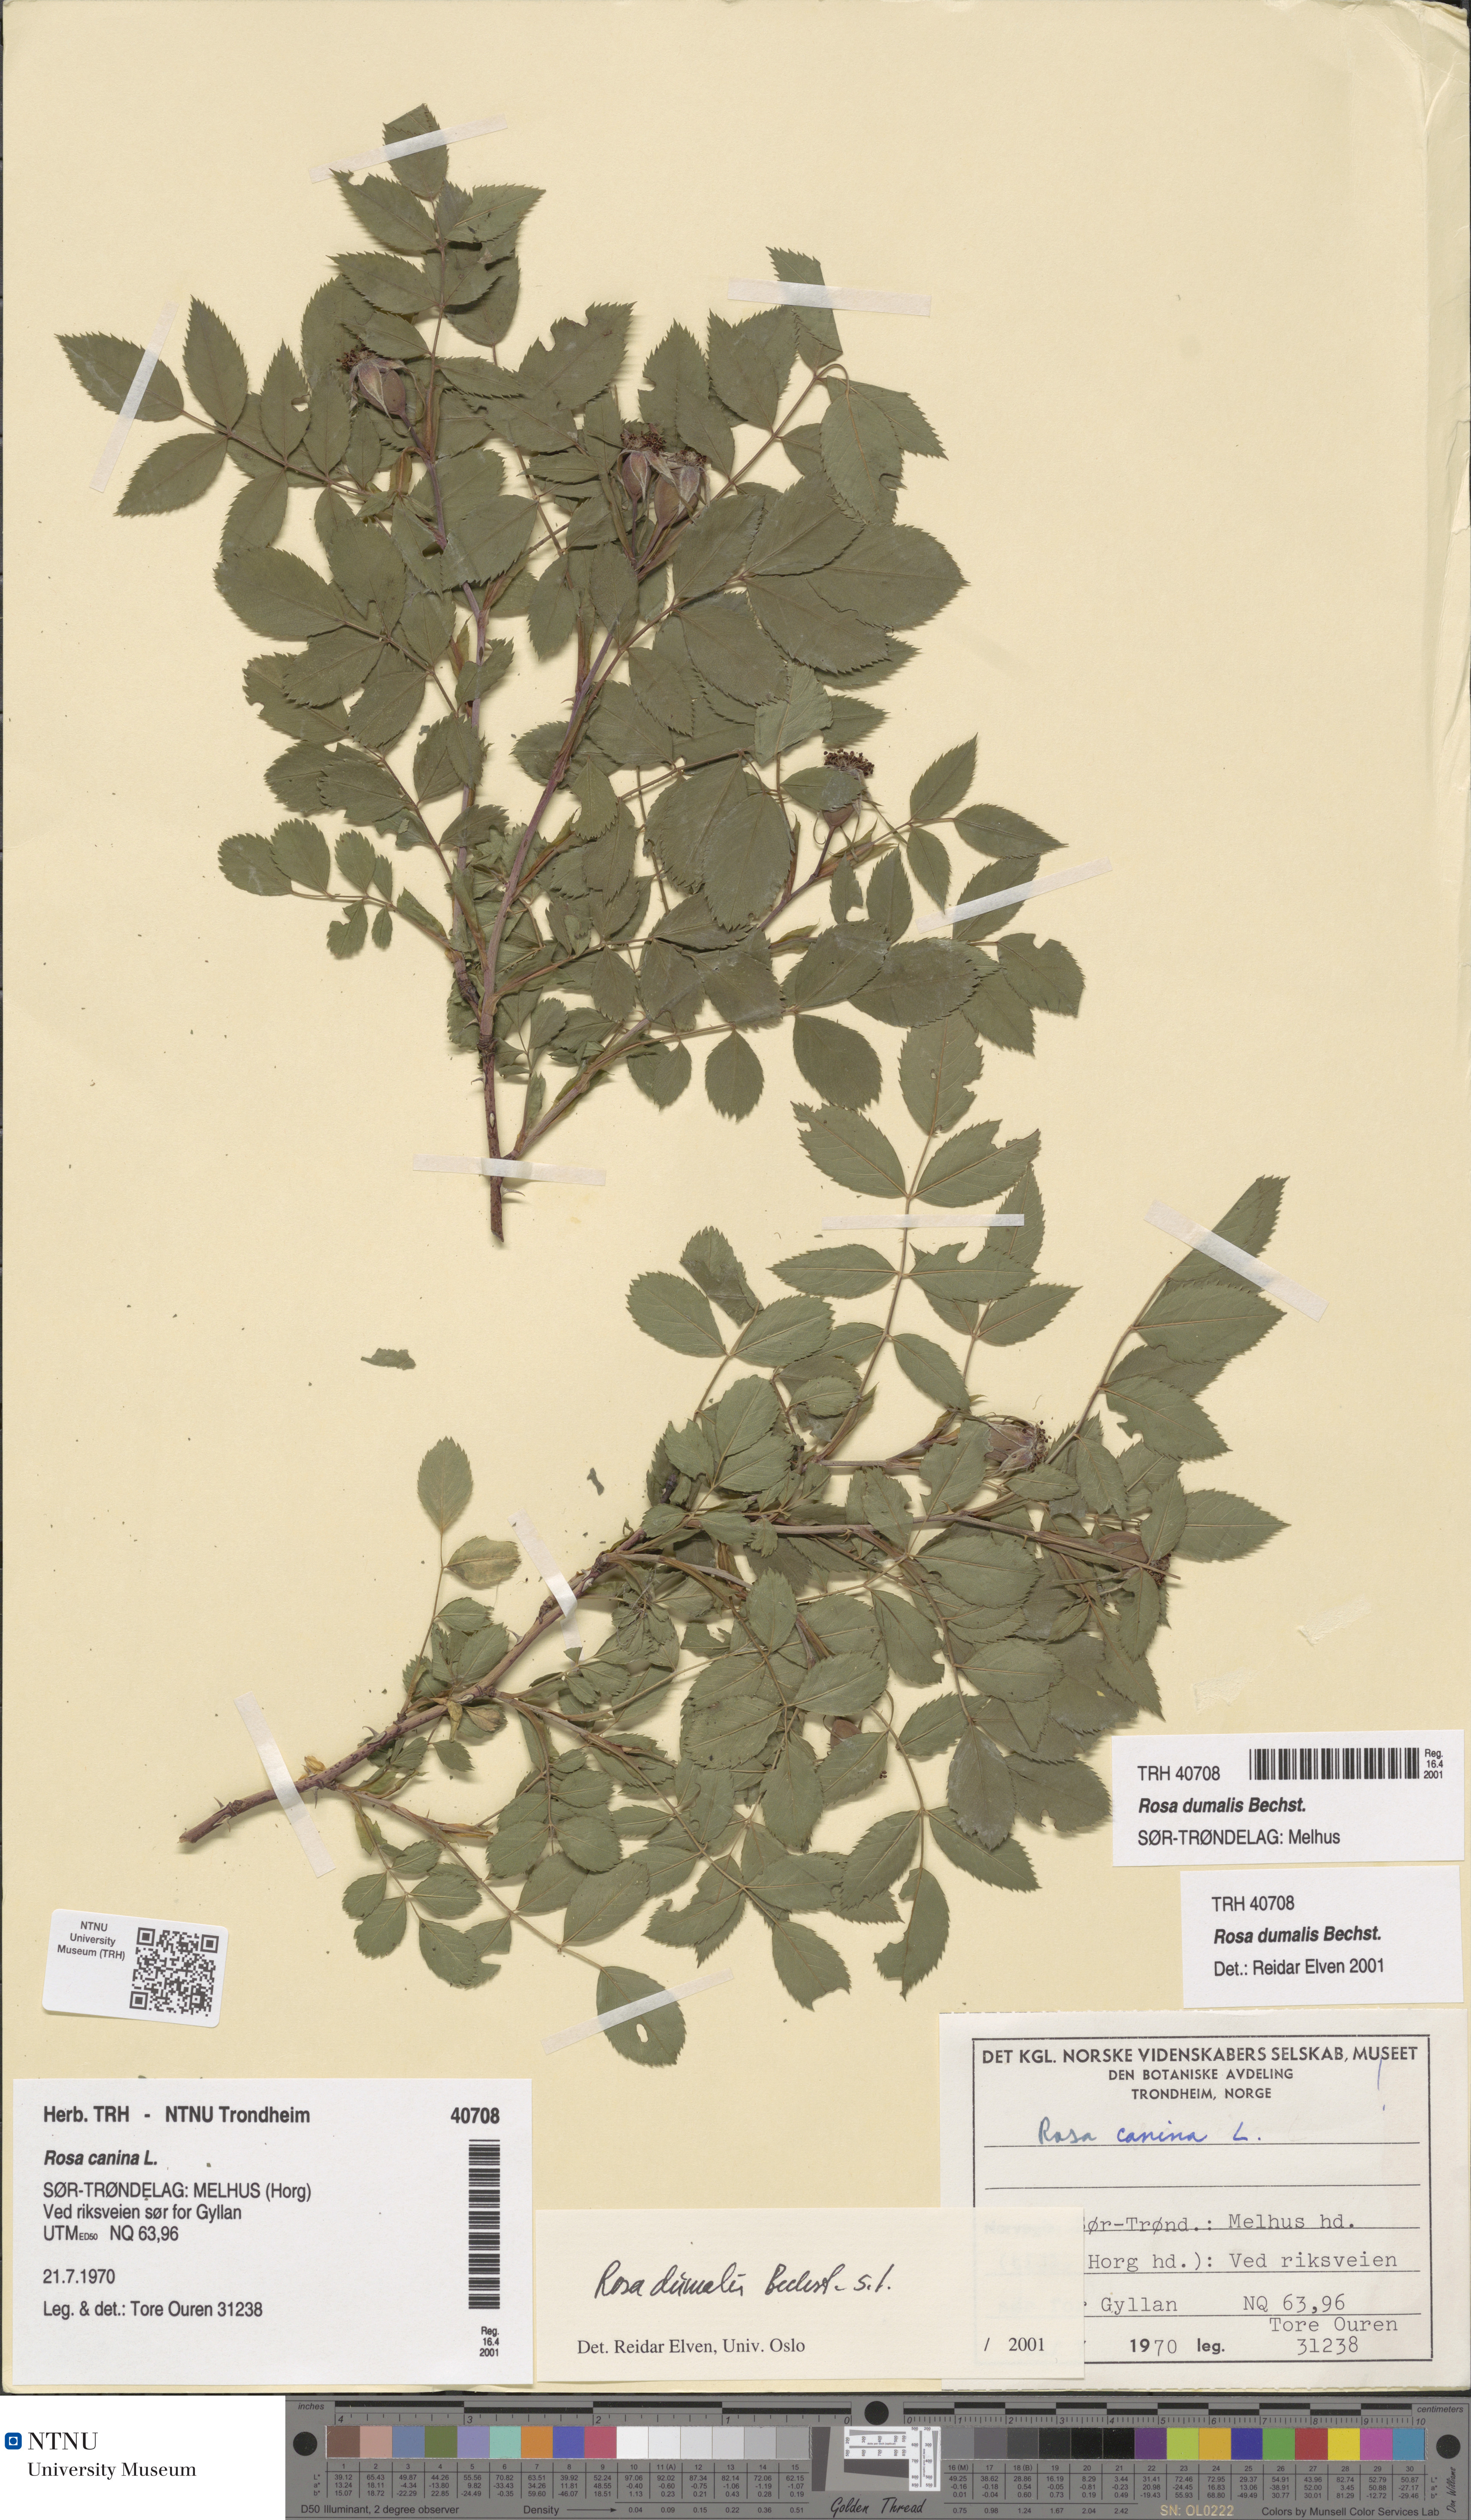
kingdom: Plantae
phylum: Tracheophyta
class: Magnoliopsida
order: Rosales
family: Rosaceae
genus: Rosa
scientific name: Rosa dumalis
